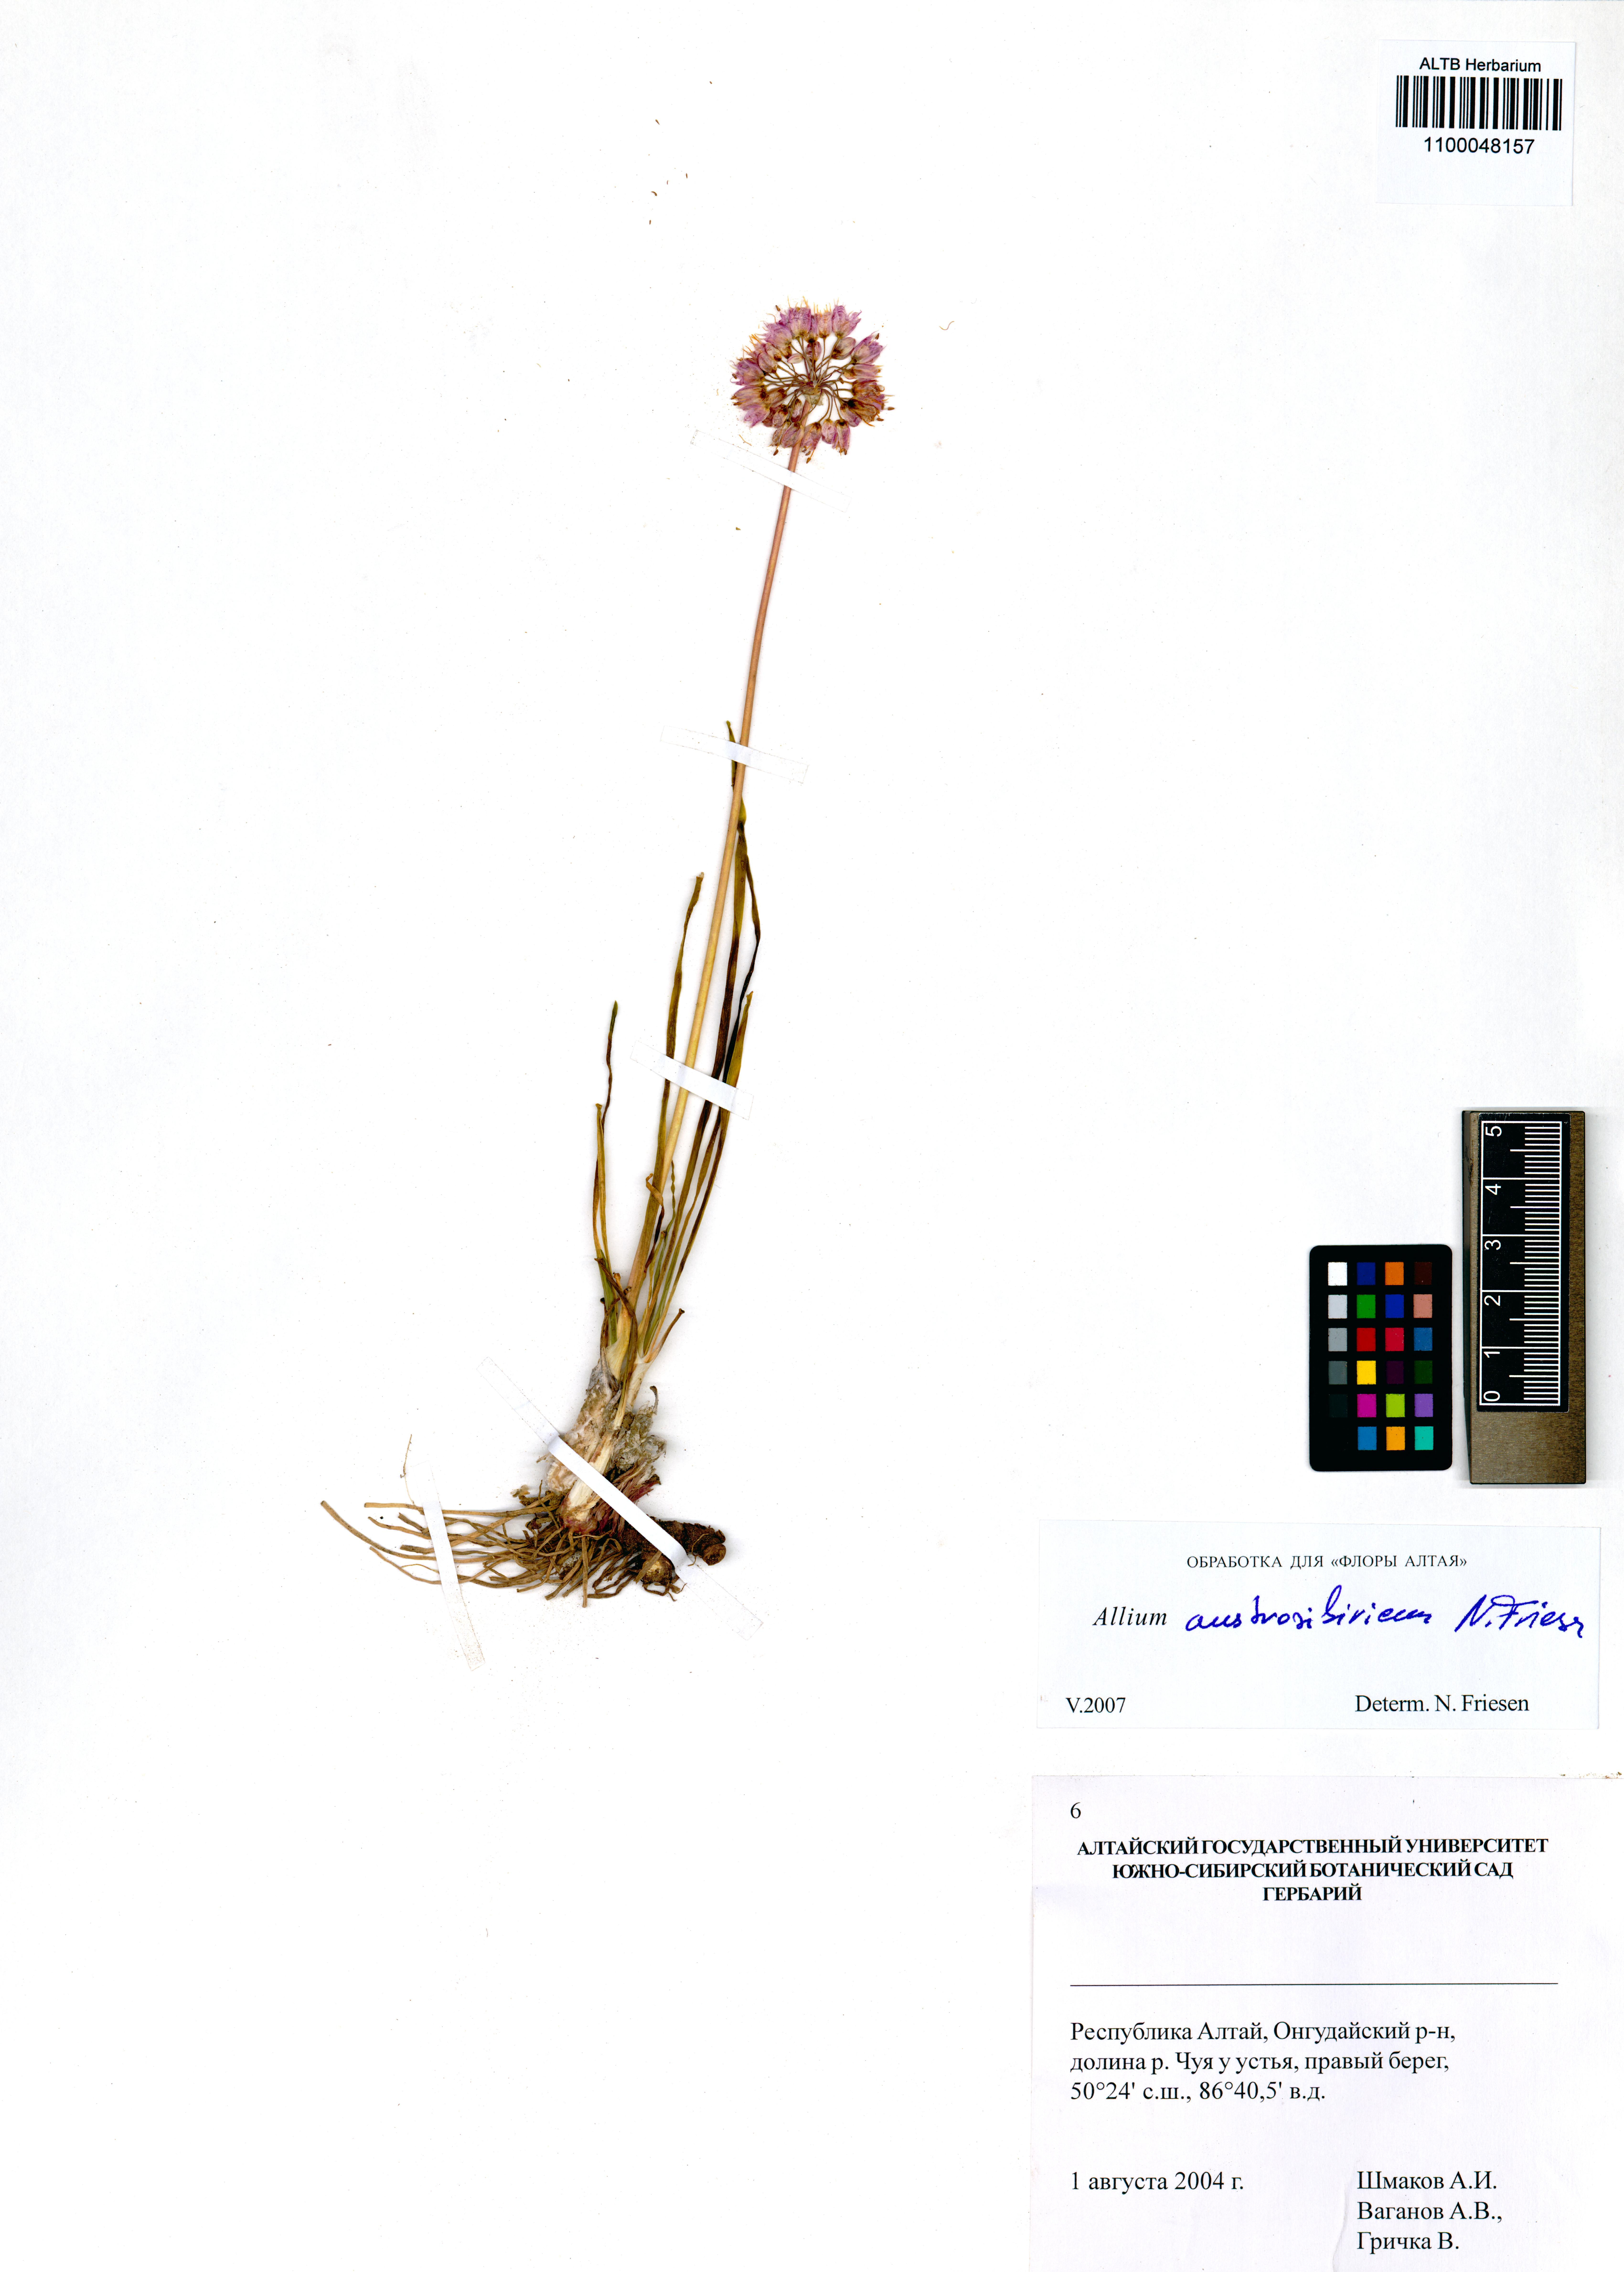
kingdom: Plantae
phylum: Tracheophyta
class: Liliopsida
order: Asparagales
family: Amaryllidaceae
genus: Allium
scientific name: Allium austrosibiricum
